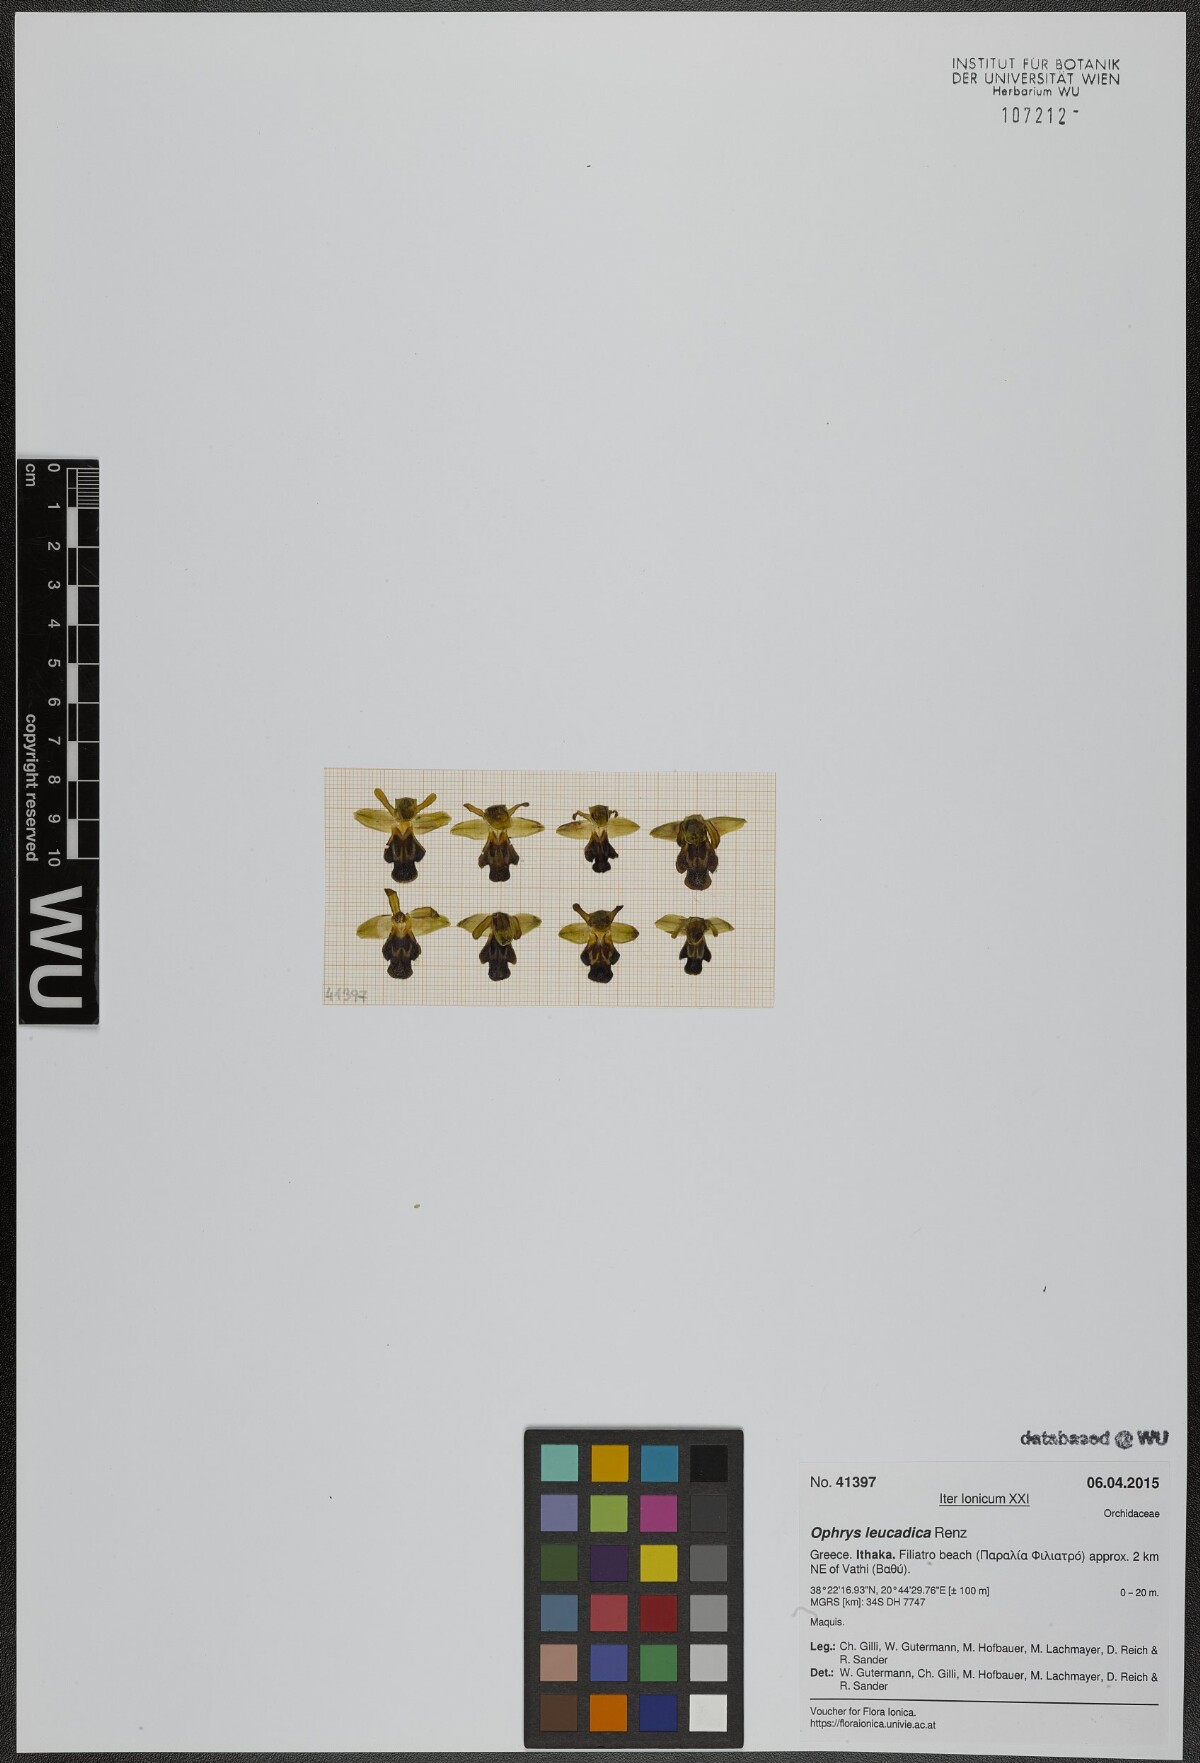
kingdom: Plantae
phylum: Tracheophyta
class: Liliopsida
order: Asparagales
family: Orchidaceae
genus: Ophrys
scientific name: Ophrys fusca
